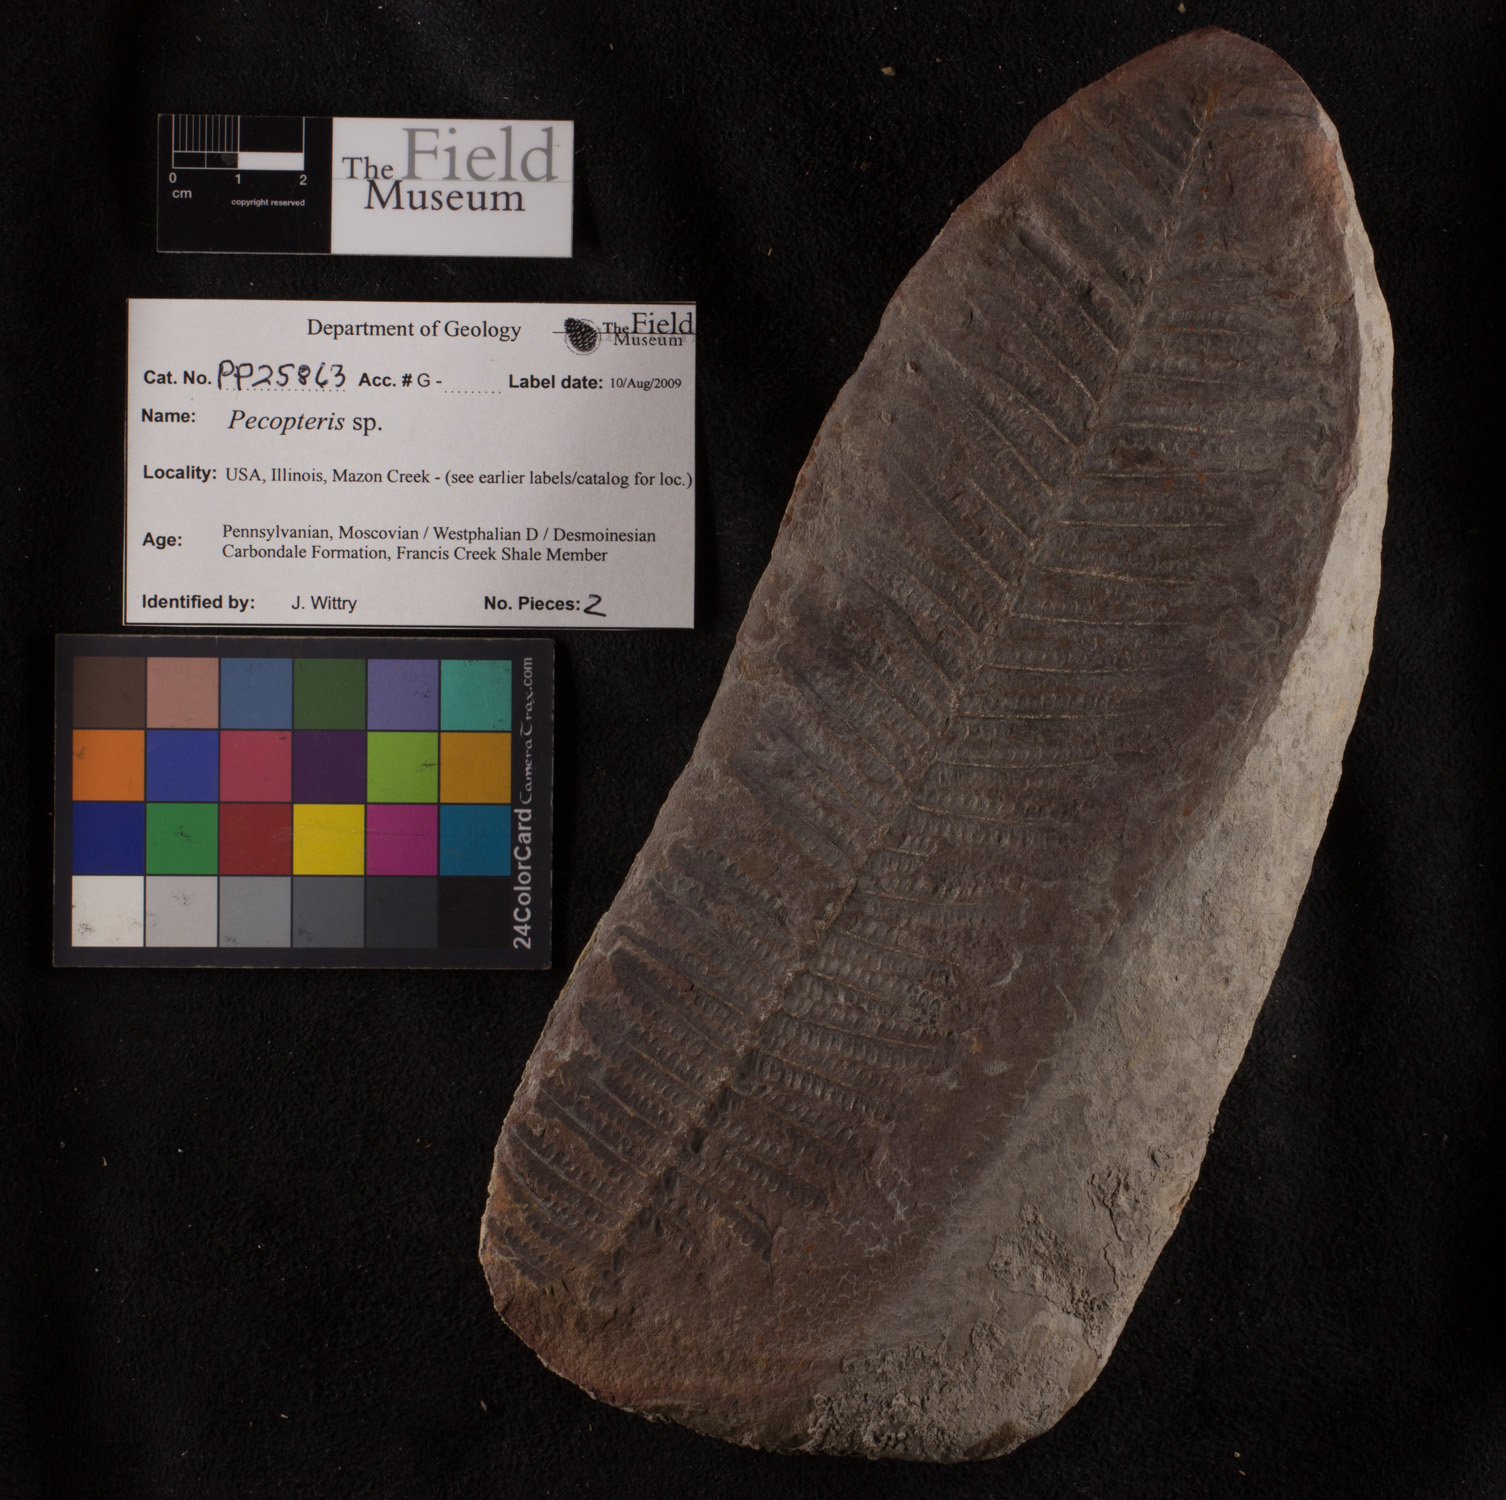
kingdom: Plantae
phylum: Tracheophyta
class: Polypodiopsida
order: Marattiales
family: Asterothecaceae
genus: Pecopteris
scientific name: Pecopteris
